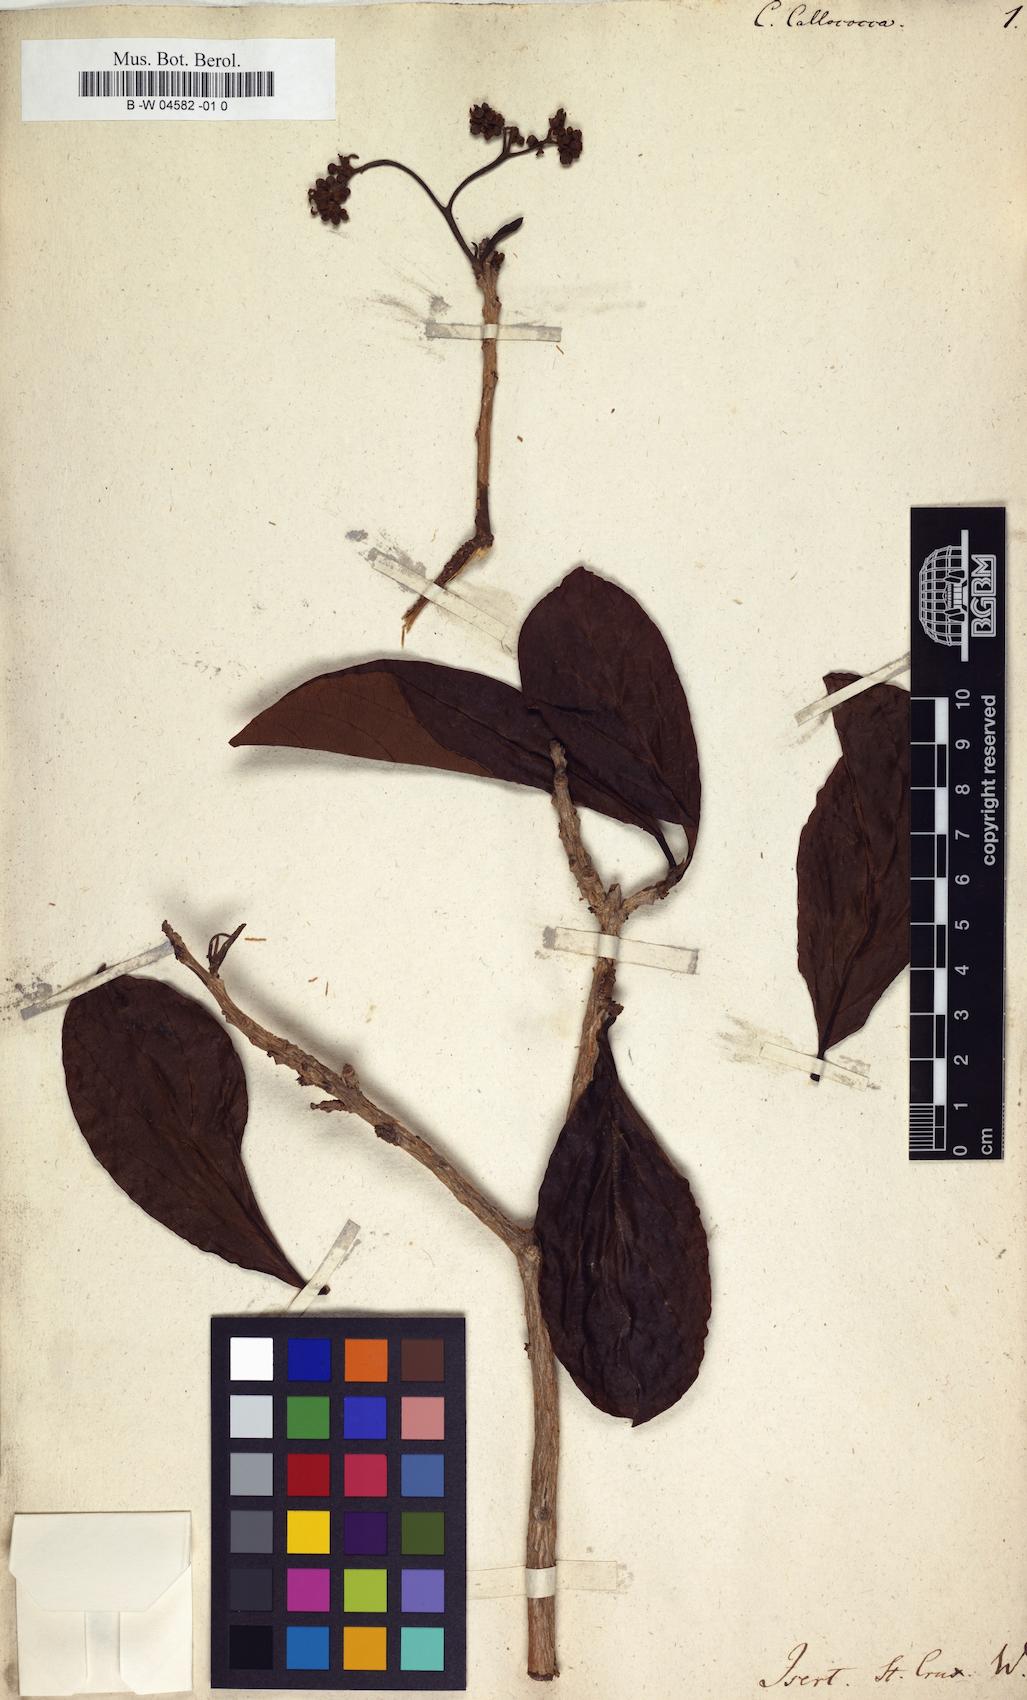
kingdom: Plantae
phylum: Tracheophyta
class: Magnoliopsida
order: Boraginales
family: Cordiaceae
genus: Cordia
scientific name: Cordia callococca
